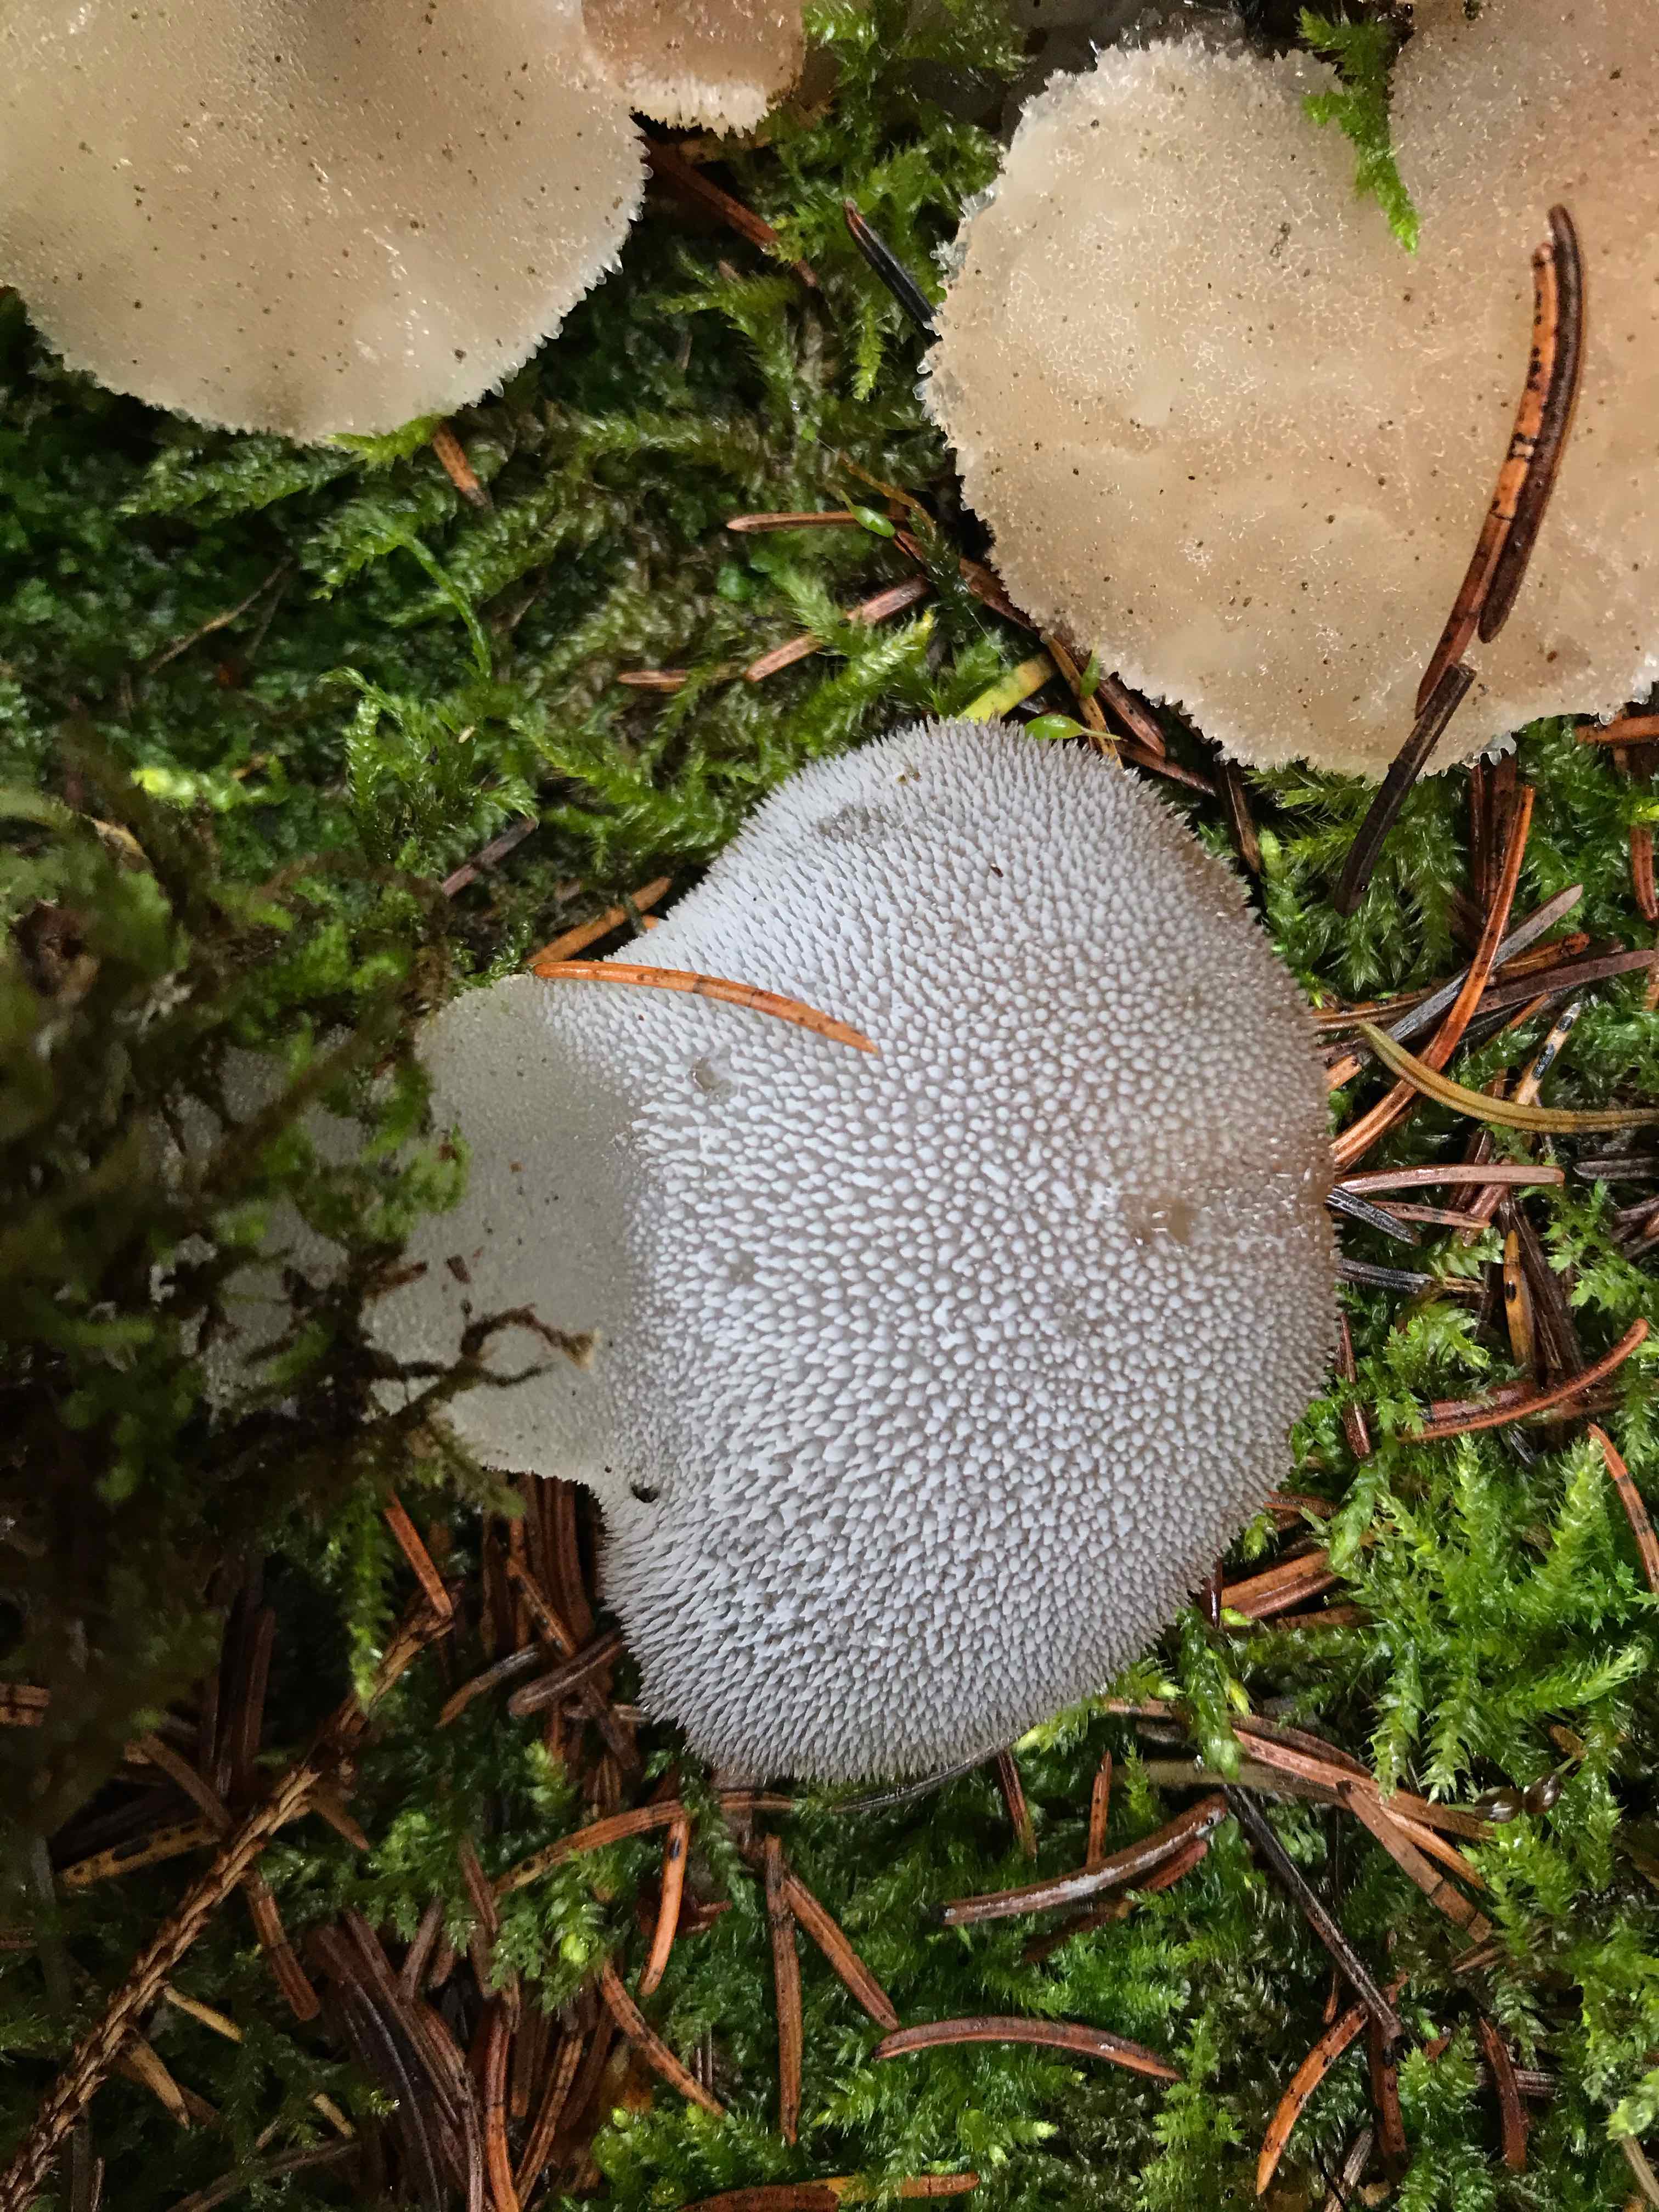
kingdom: Fungi
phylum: Basidiomycota
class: Agaricomycetes
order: Auriculariales
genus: Pseudohydnum
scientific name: Pseudohydnum gelatinosum
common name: bævretand
